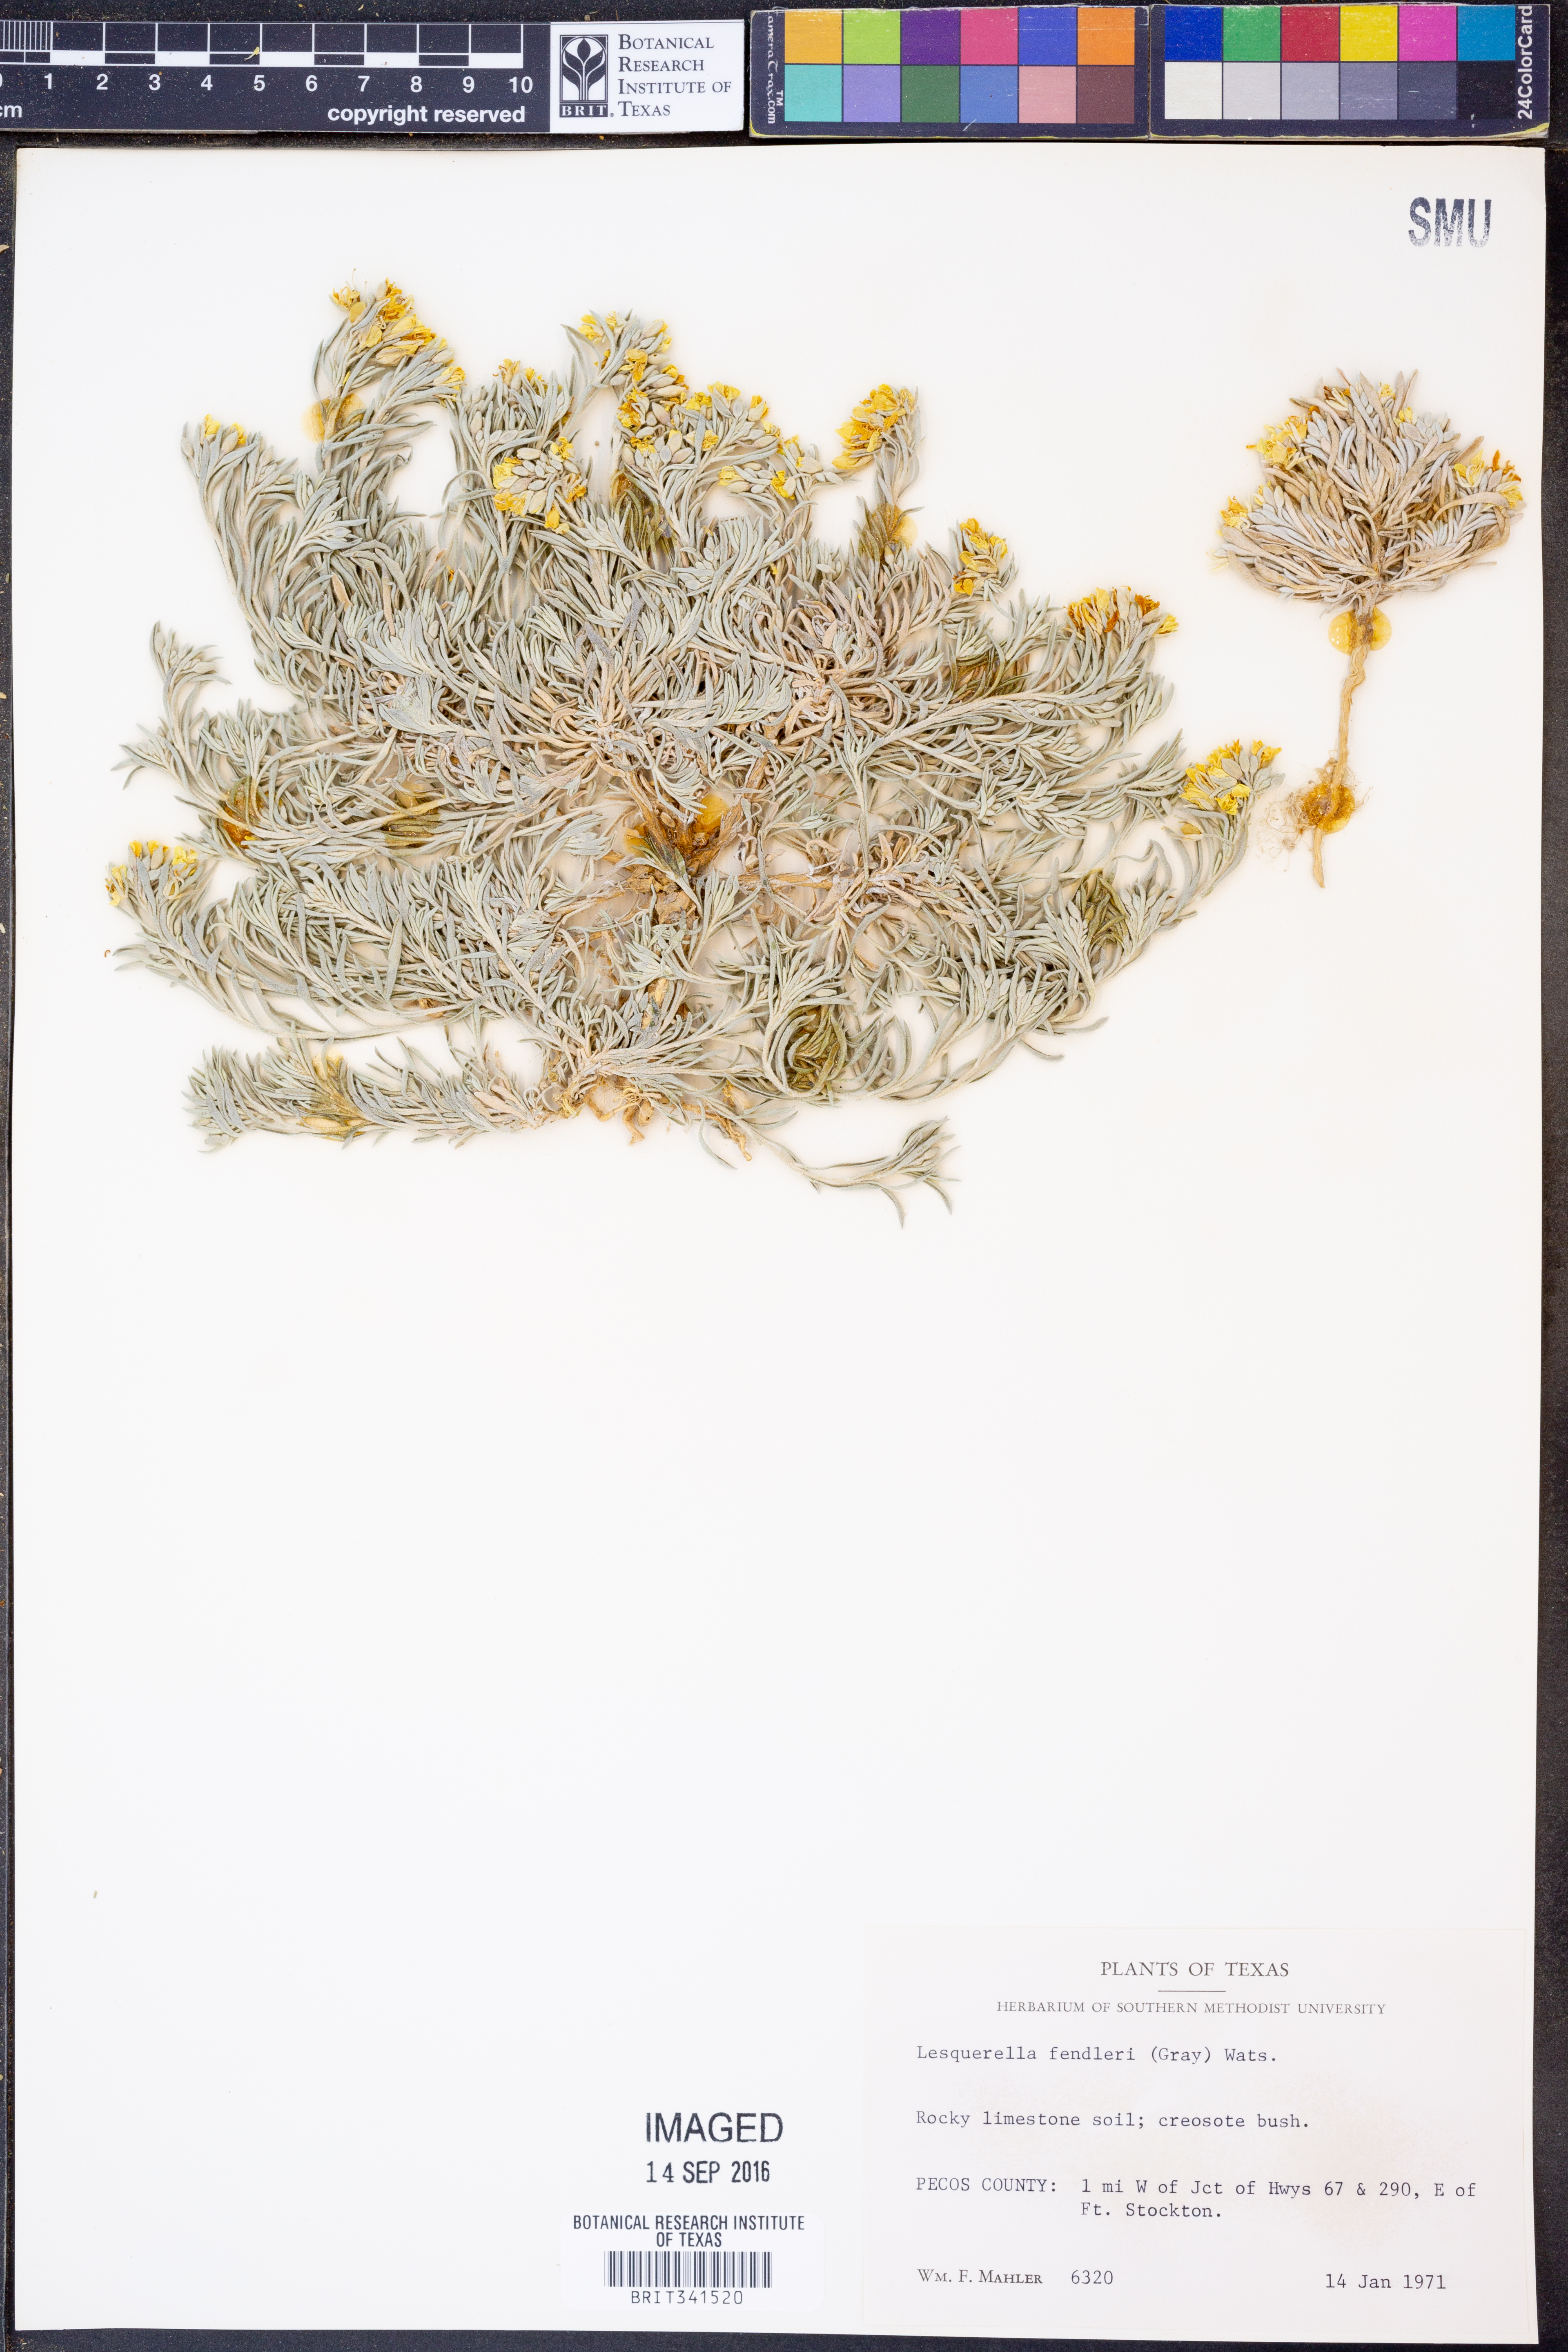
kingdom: Plantae
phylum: Tracheophyta
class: Magnoliopsida
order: Brassicales
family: Brassicaceae
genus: Physaria
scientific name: Physaria fendleri
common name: Fendler's bladderpod
